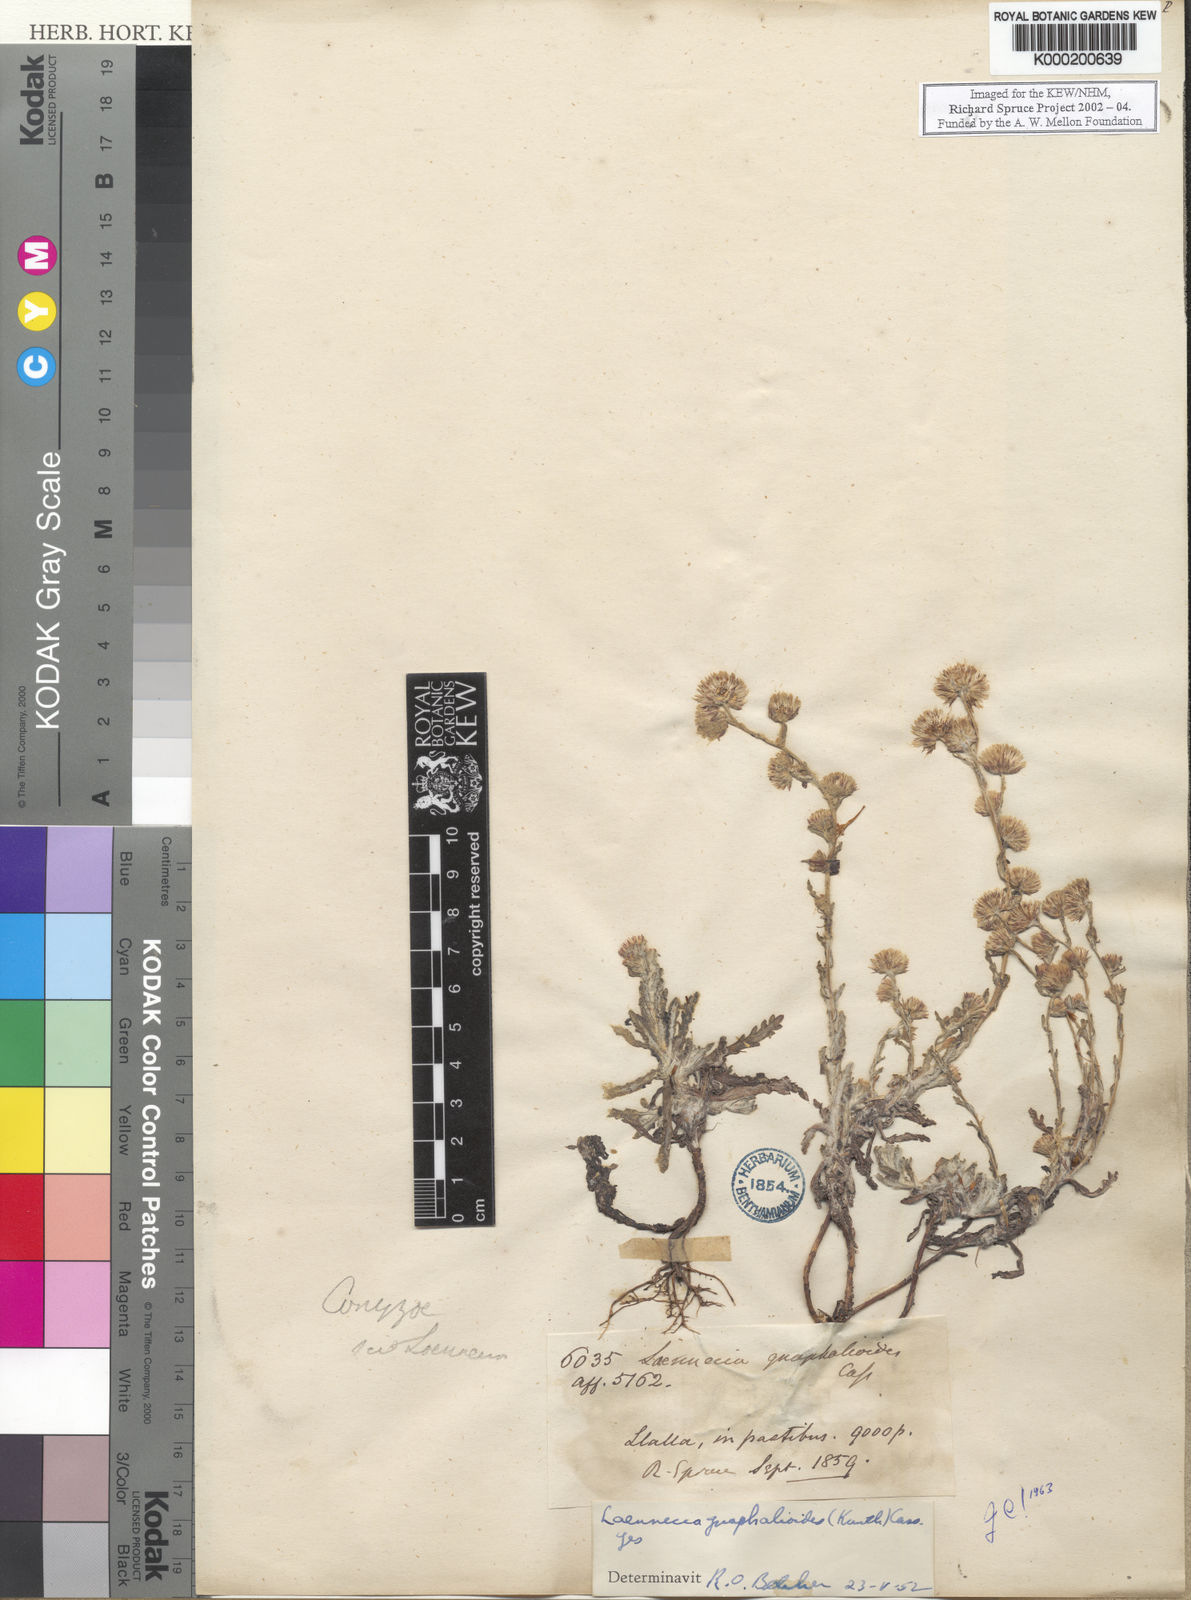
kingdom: Plantae
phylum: Tracheophyta
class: Magnoliopsida
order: Asterales
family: Asteraceae
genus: Laennecia
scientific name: Laennecia
